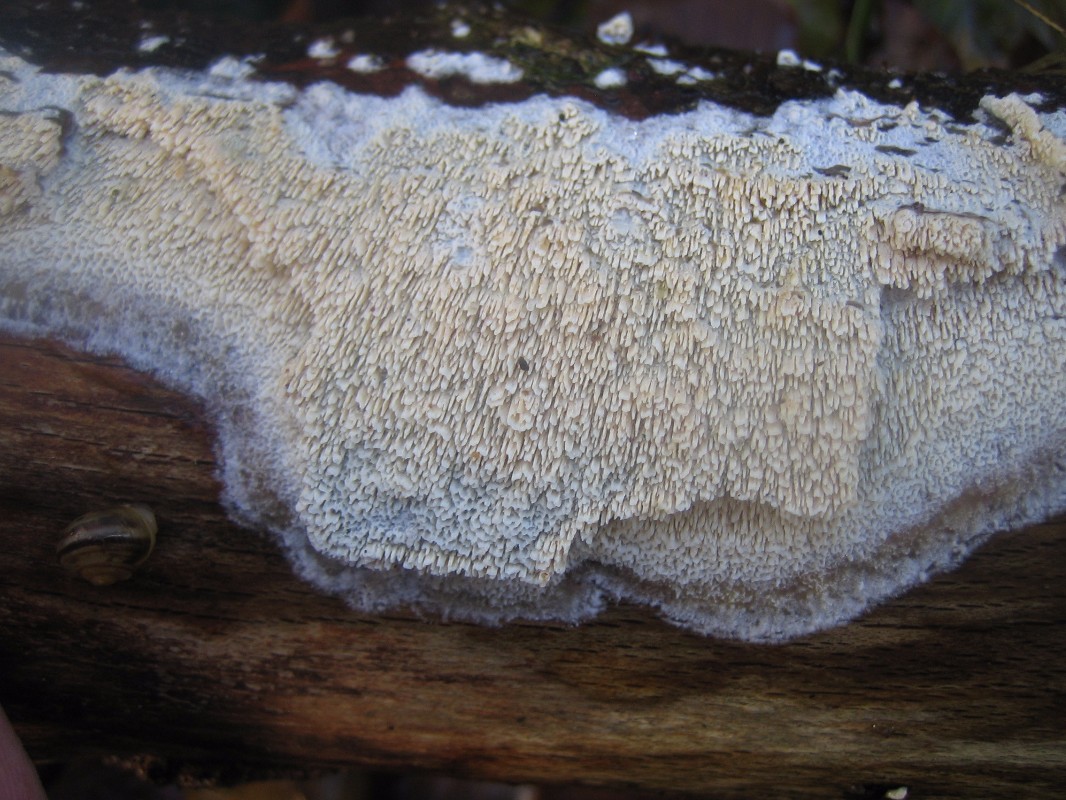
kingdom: Fungi
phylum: Basidiomycota
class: Agaricomycetes
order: Hymenochaetales
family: Schizoporaceae
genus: Schizopora
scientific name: Schizopora paradoxa
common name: hvid tandsvamp
